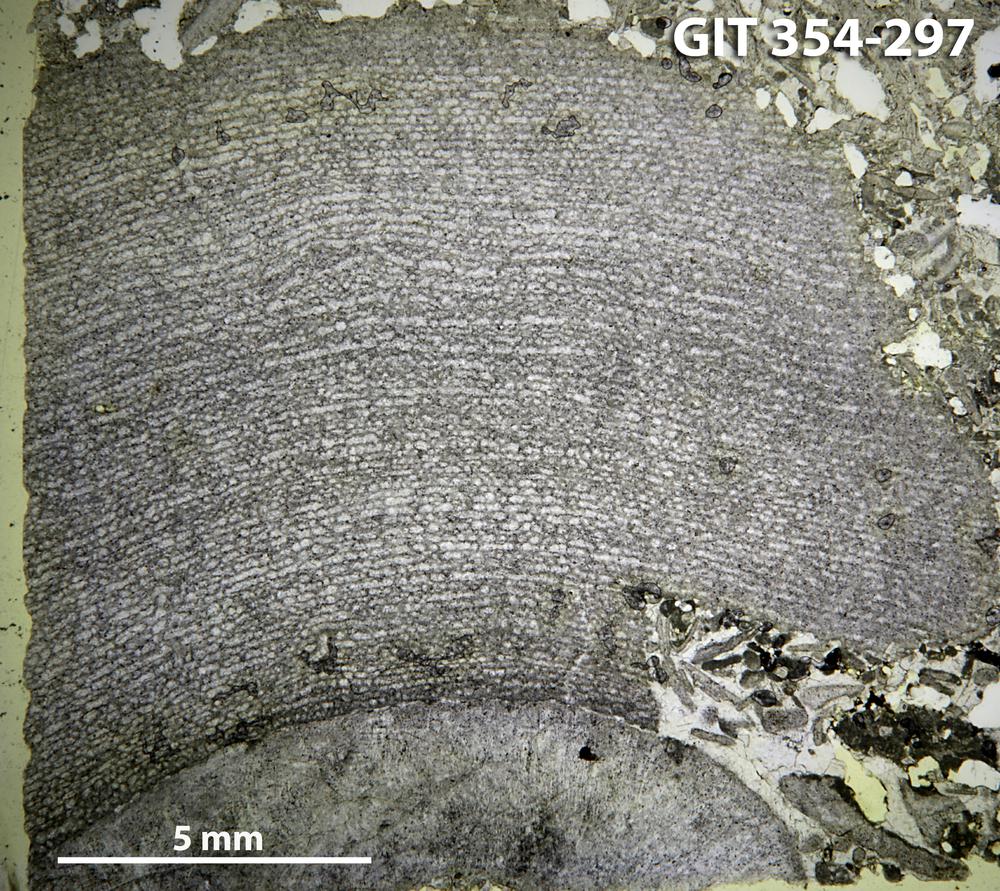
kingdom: Animalia
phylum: Porifera
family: Clathrodictyidae
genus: Clathrodictyon
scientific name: Clathrodictyon kudriavzevi
